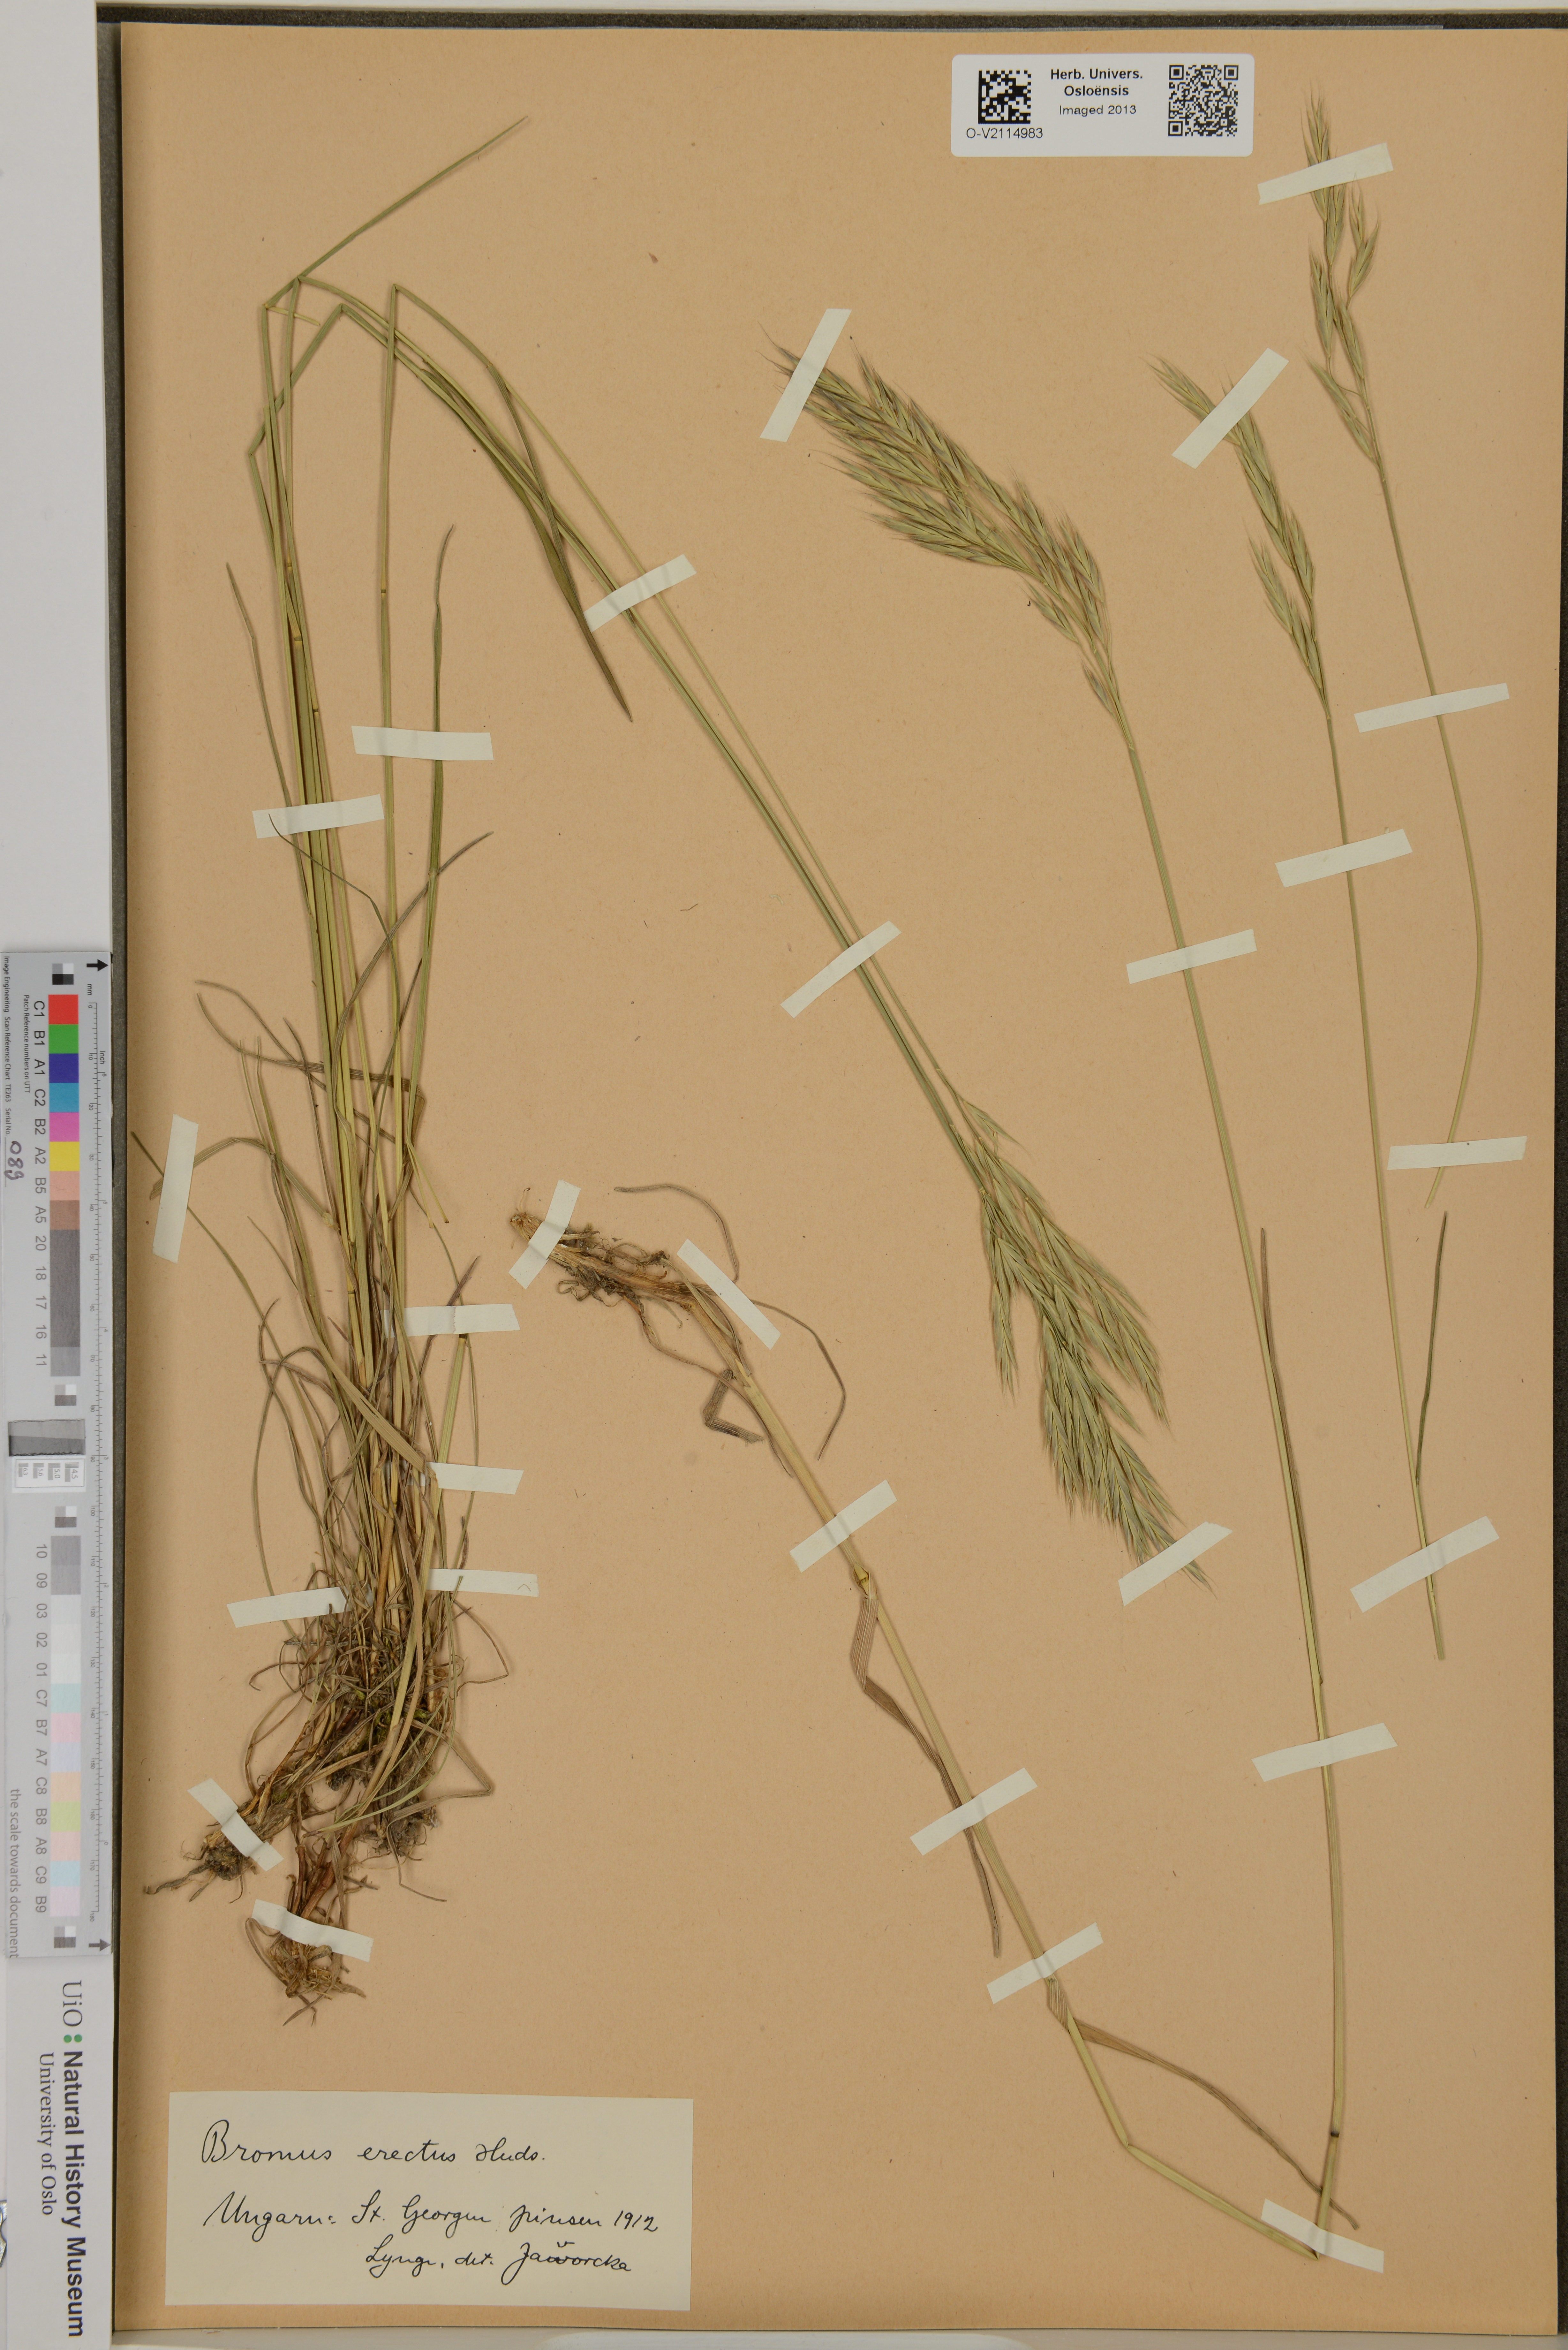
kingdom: Plantae
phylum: Tracheophyta
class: Liliopsida
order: Poales
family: Poaceae
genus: Bromus
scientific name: Bromus erectus
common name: Erect brome
